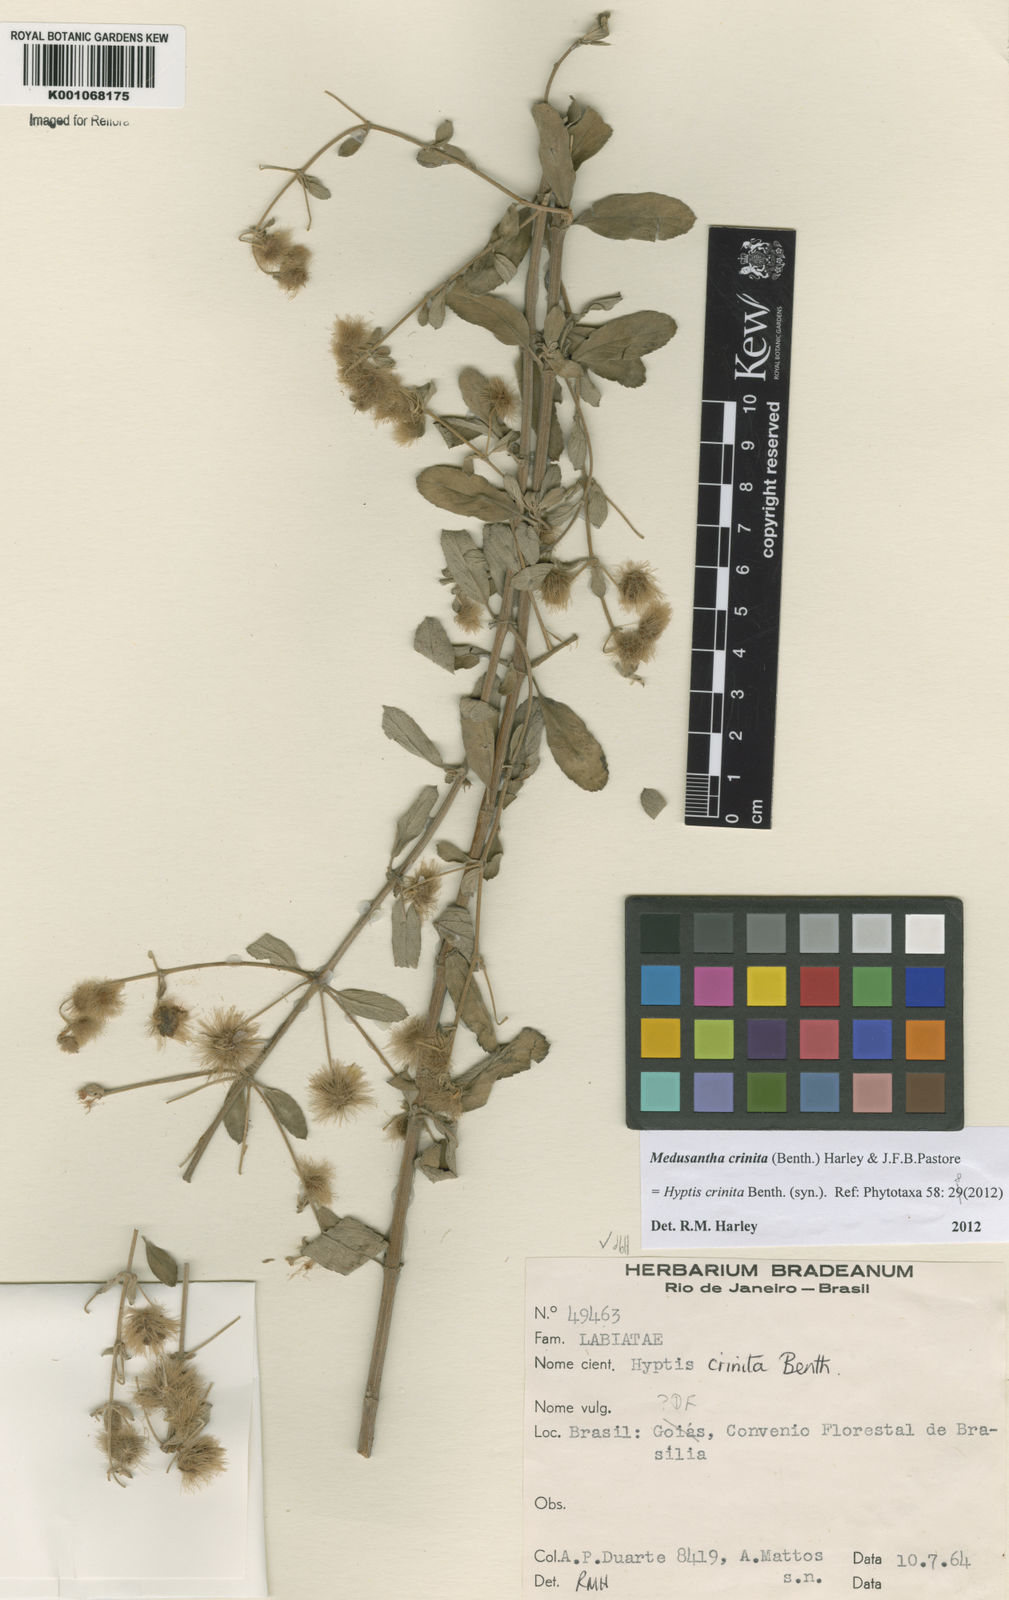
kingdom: Plantae
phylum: Tracheophyta
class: Magnoliopsida
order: Lamiales
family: Lamiaceae
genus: Medusantha
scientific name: Medusantha crinita
